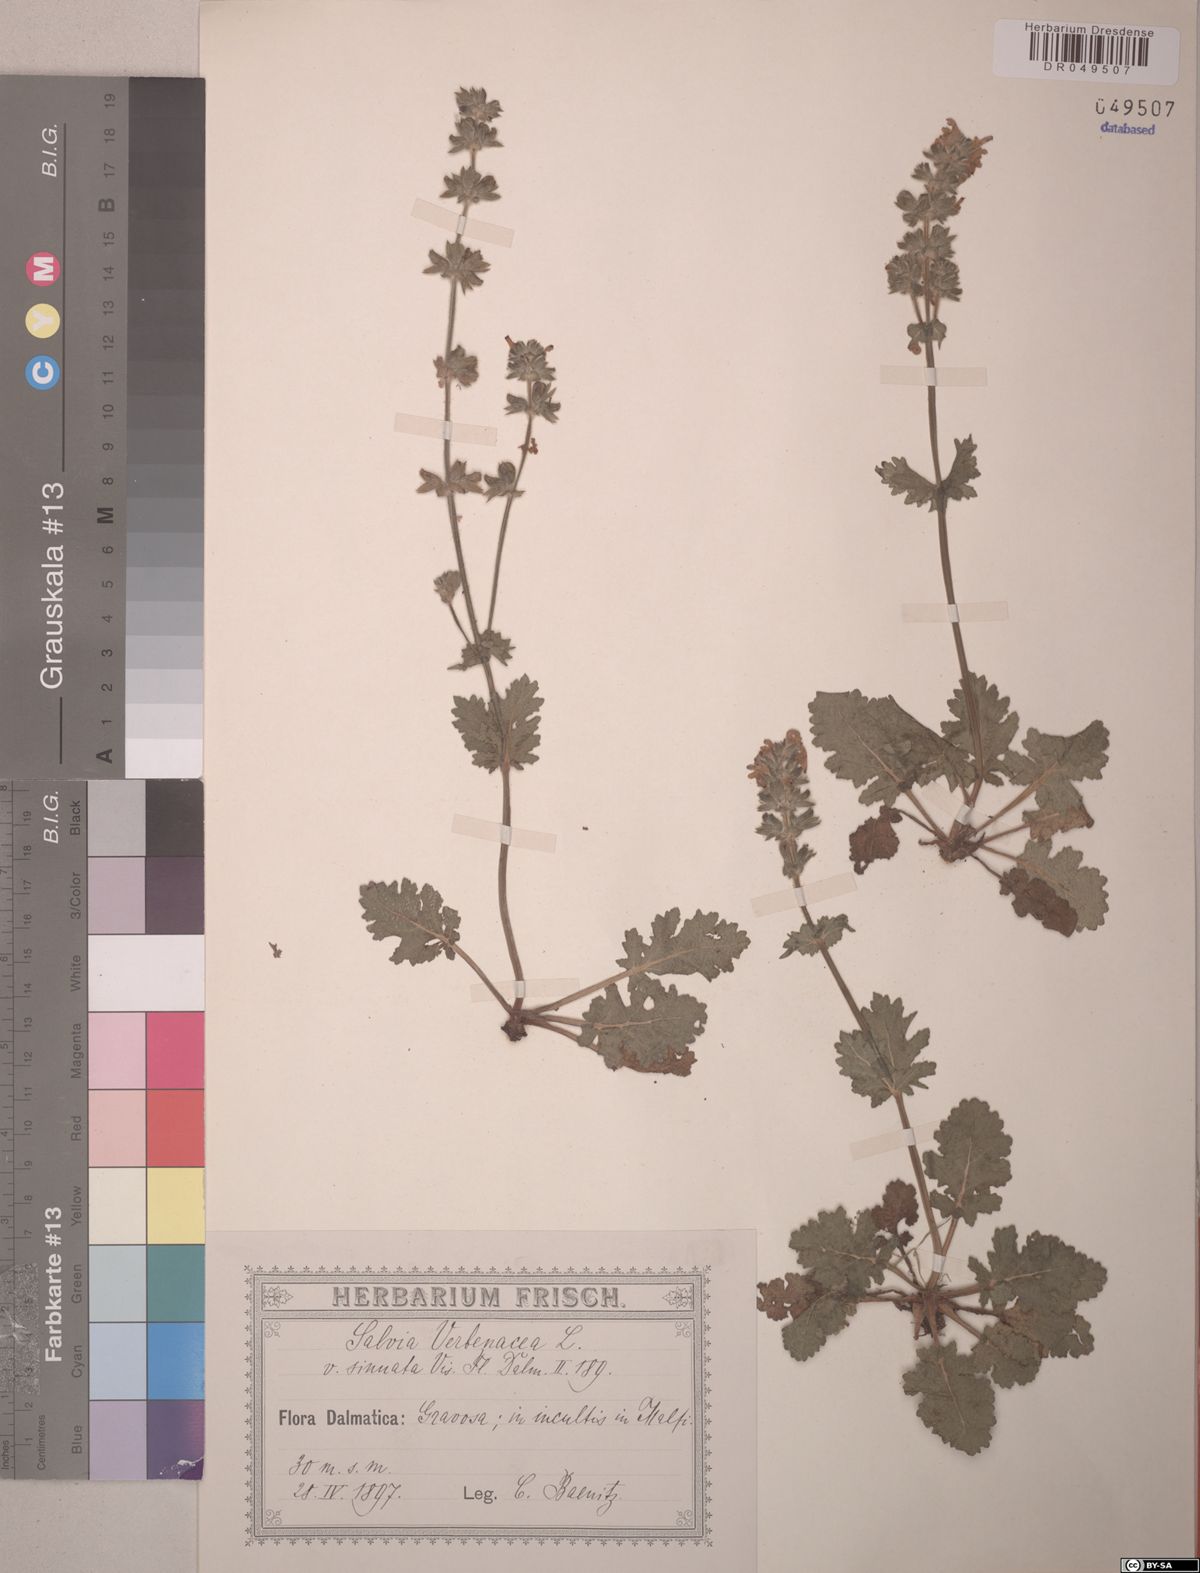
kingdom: Plantae
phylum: Tracheophyta
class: Magnoliopsida
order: Lamiales
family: Lamiaceae
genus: Salvia
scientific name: Salvia verbenaca
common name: Wild clary
